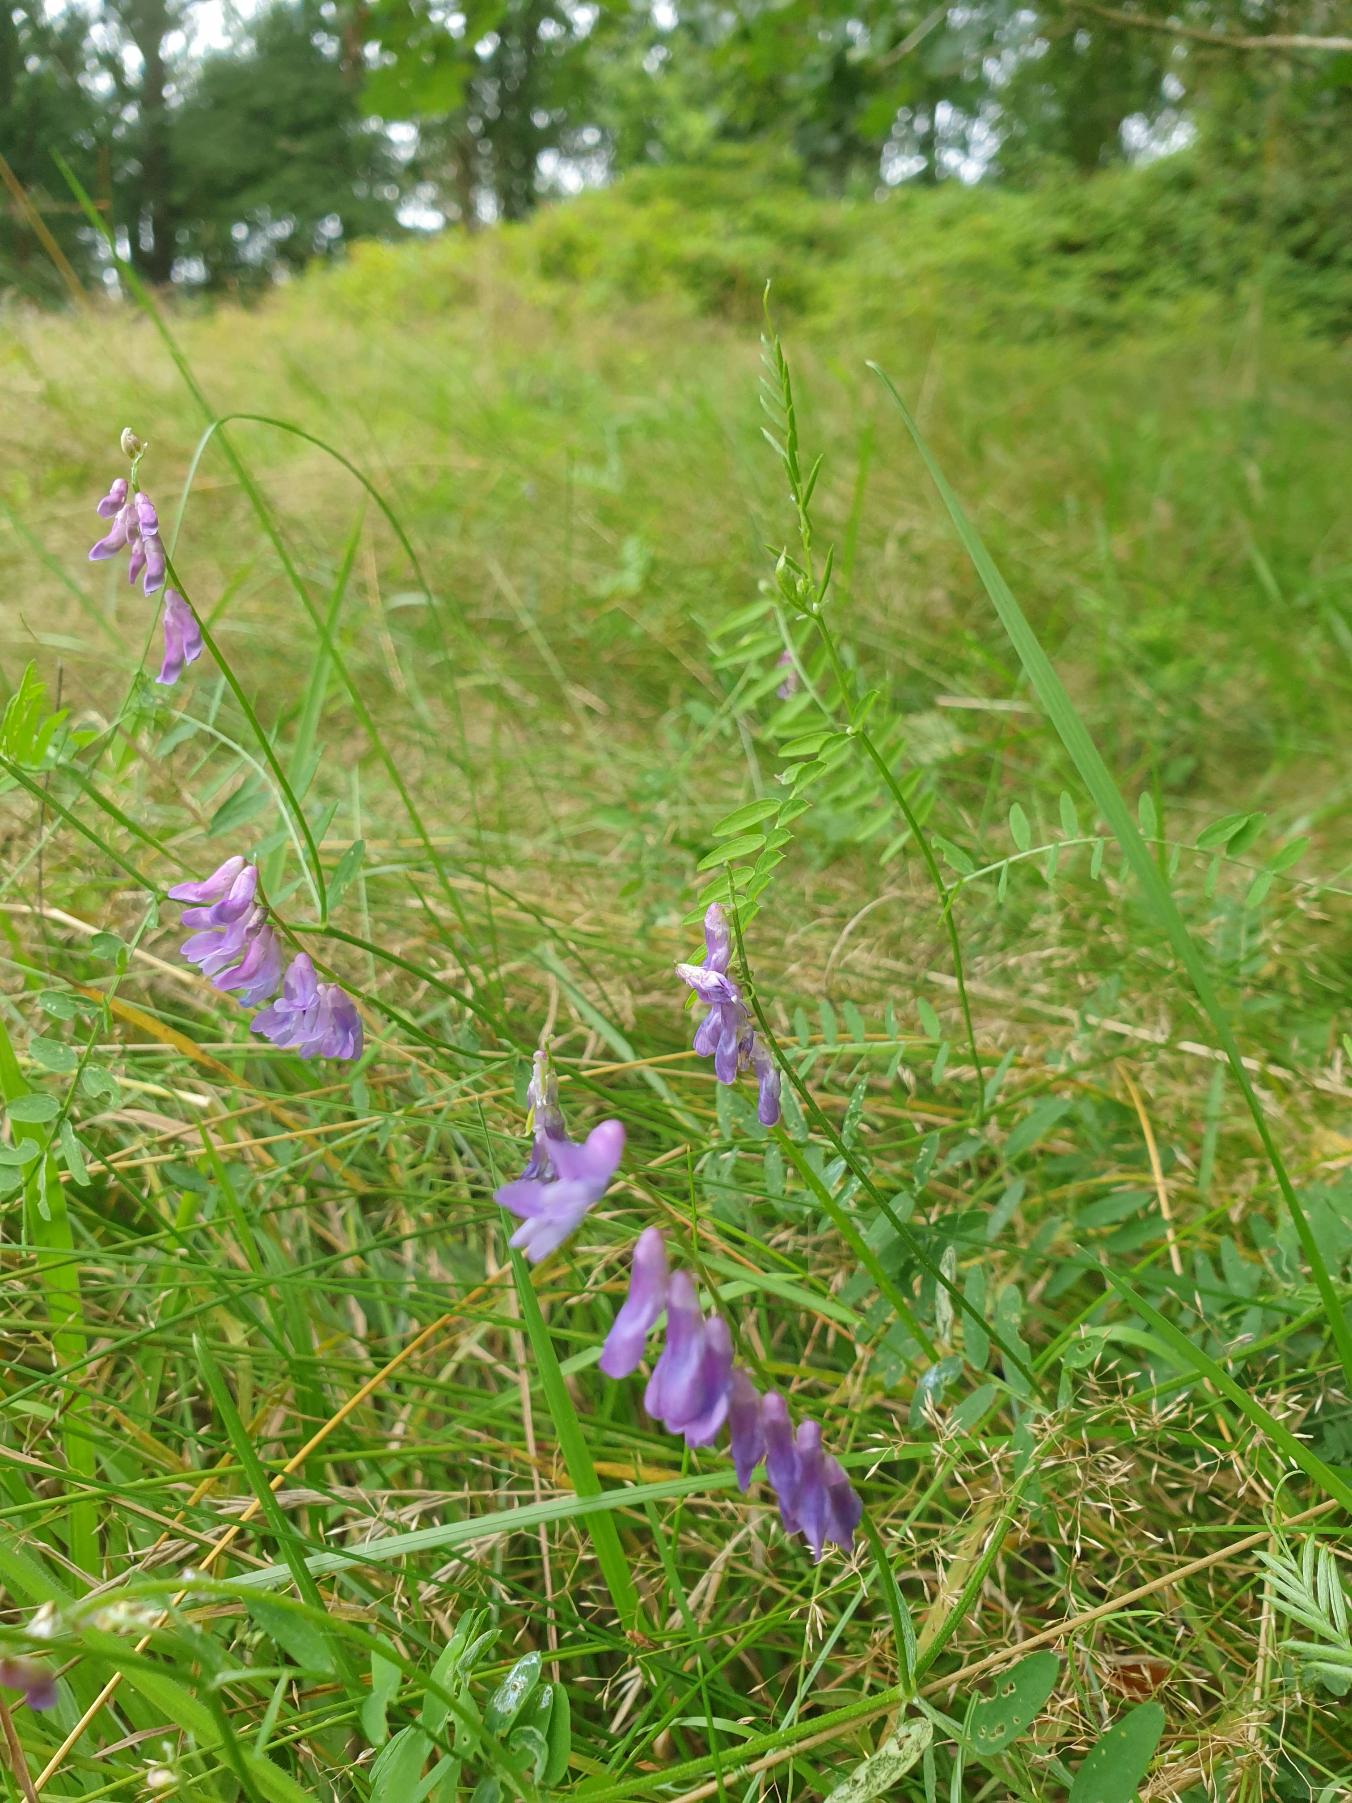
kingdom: Plantae
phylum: Tracheophyta
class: Magnoliopsida
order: Fabales
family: Fabaceae
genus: Vicia
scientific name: Vicia cracca
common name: Muse-vikke
